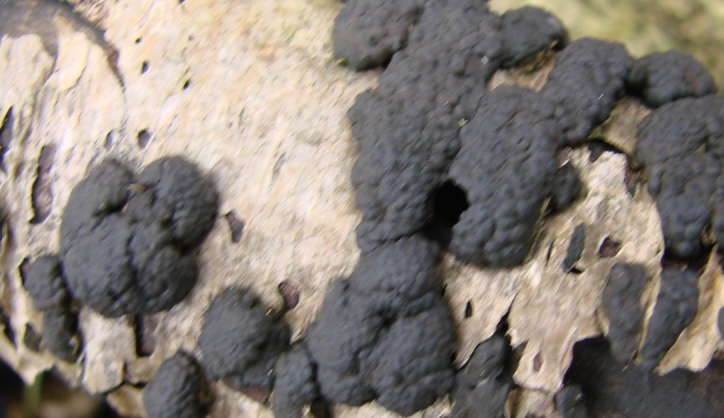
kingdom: Fungi
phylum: Ascomycota
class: Sordariomycetes
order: Xylariales
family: Diatrypaceae
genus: Diatrype
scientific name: Diatrype bullata
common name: pile-kulskorpe
